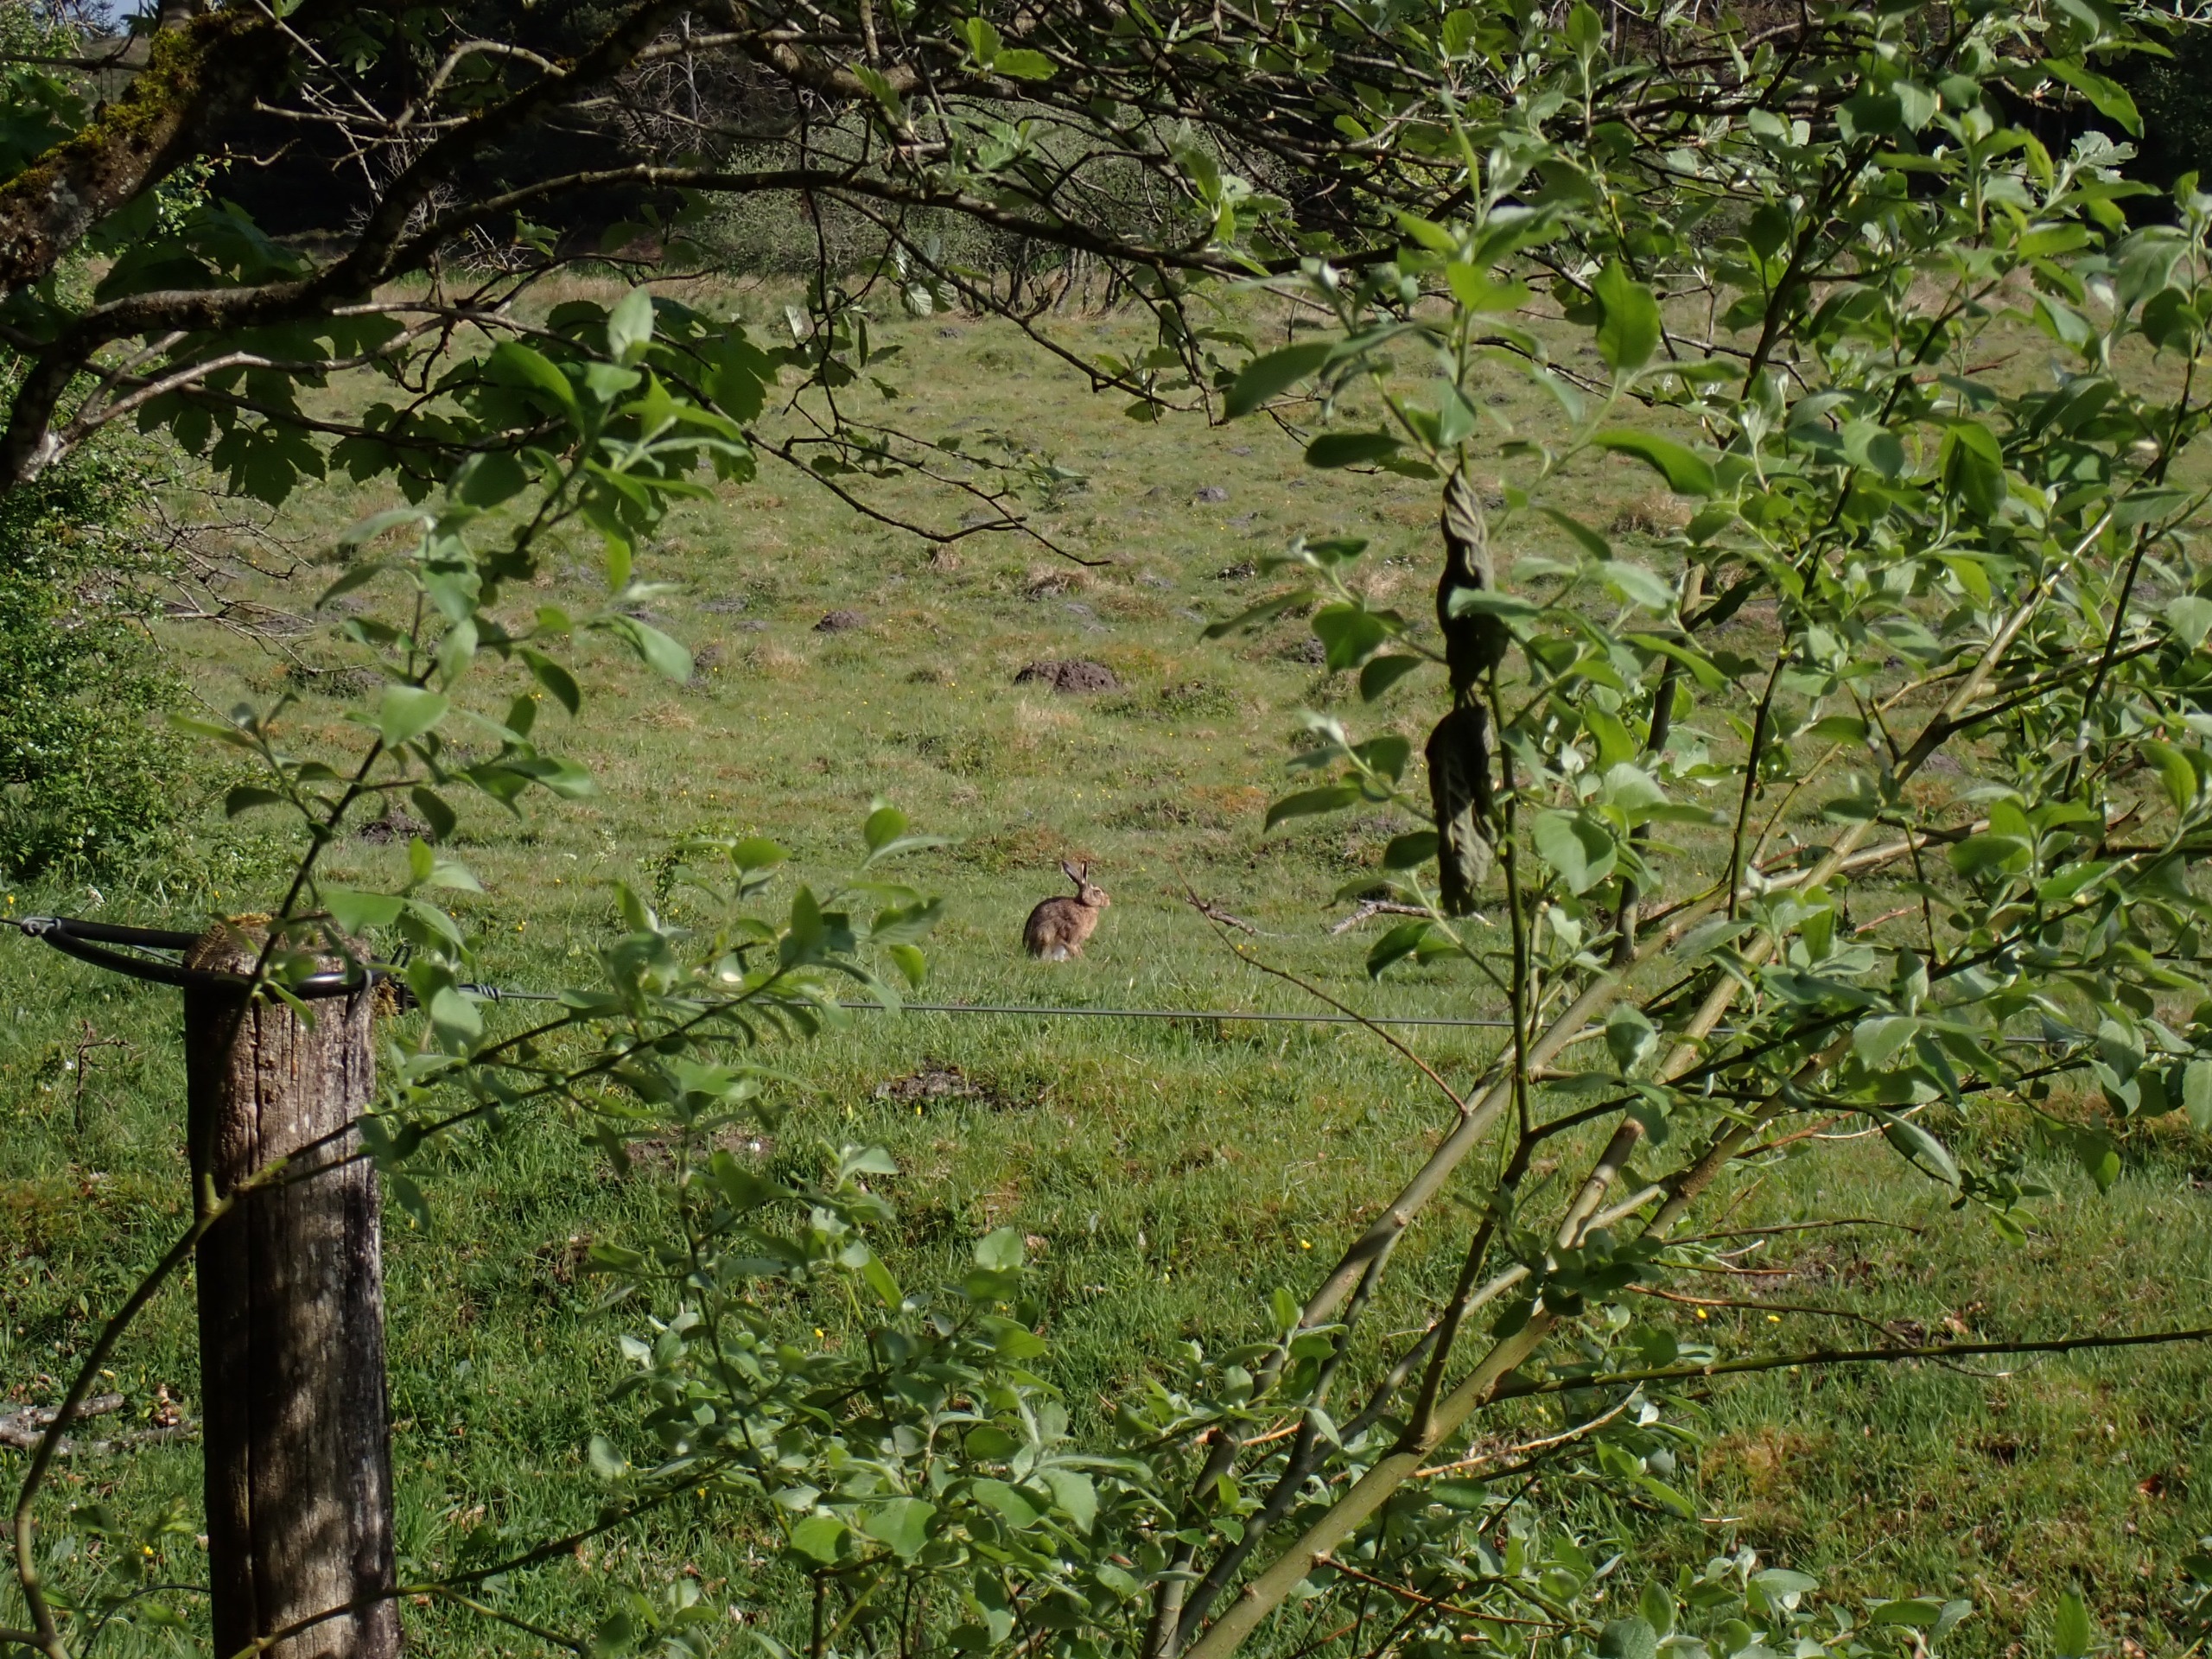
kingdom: Animalia
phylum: Chordata
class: Mammalia
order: Lagomorpha
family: Leporidae
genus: Lepus
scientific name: Lepus europaeus
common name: Hare
